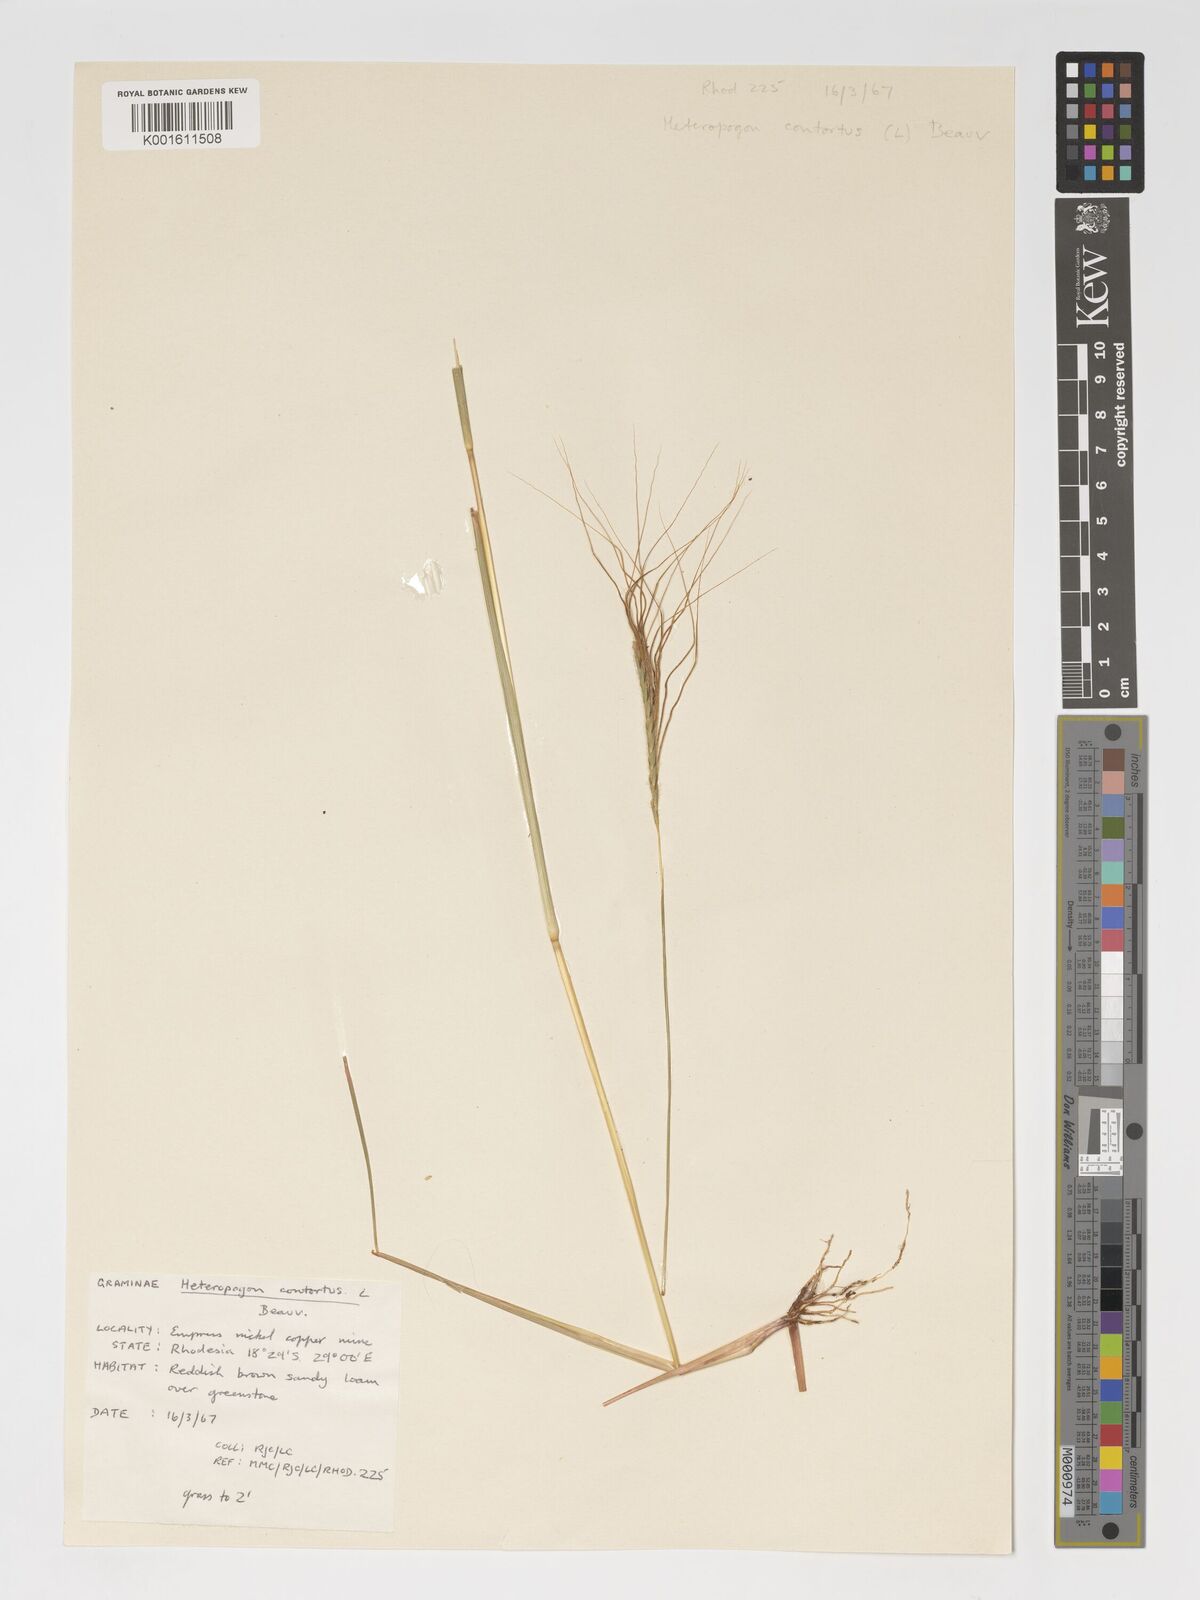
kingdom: Plantae
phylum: Tracheophyta
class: Liliopsida
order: Poales
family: Poaceae
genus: Heteropogon
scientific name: Heteropogon contortus
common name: Tanglehead
